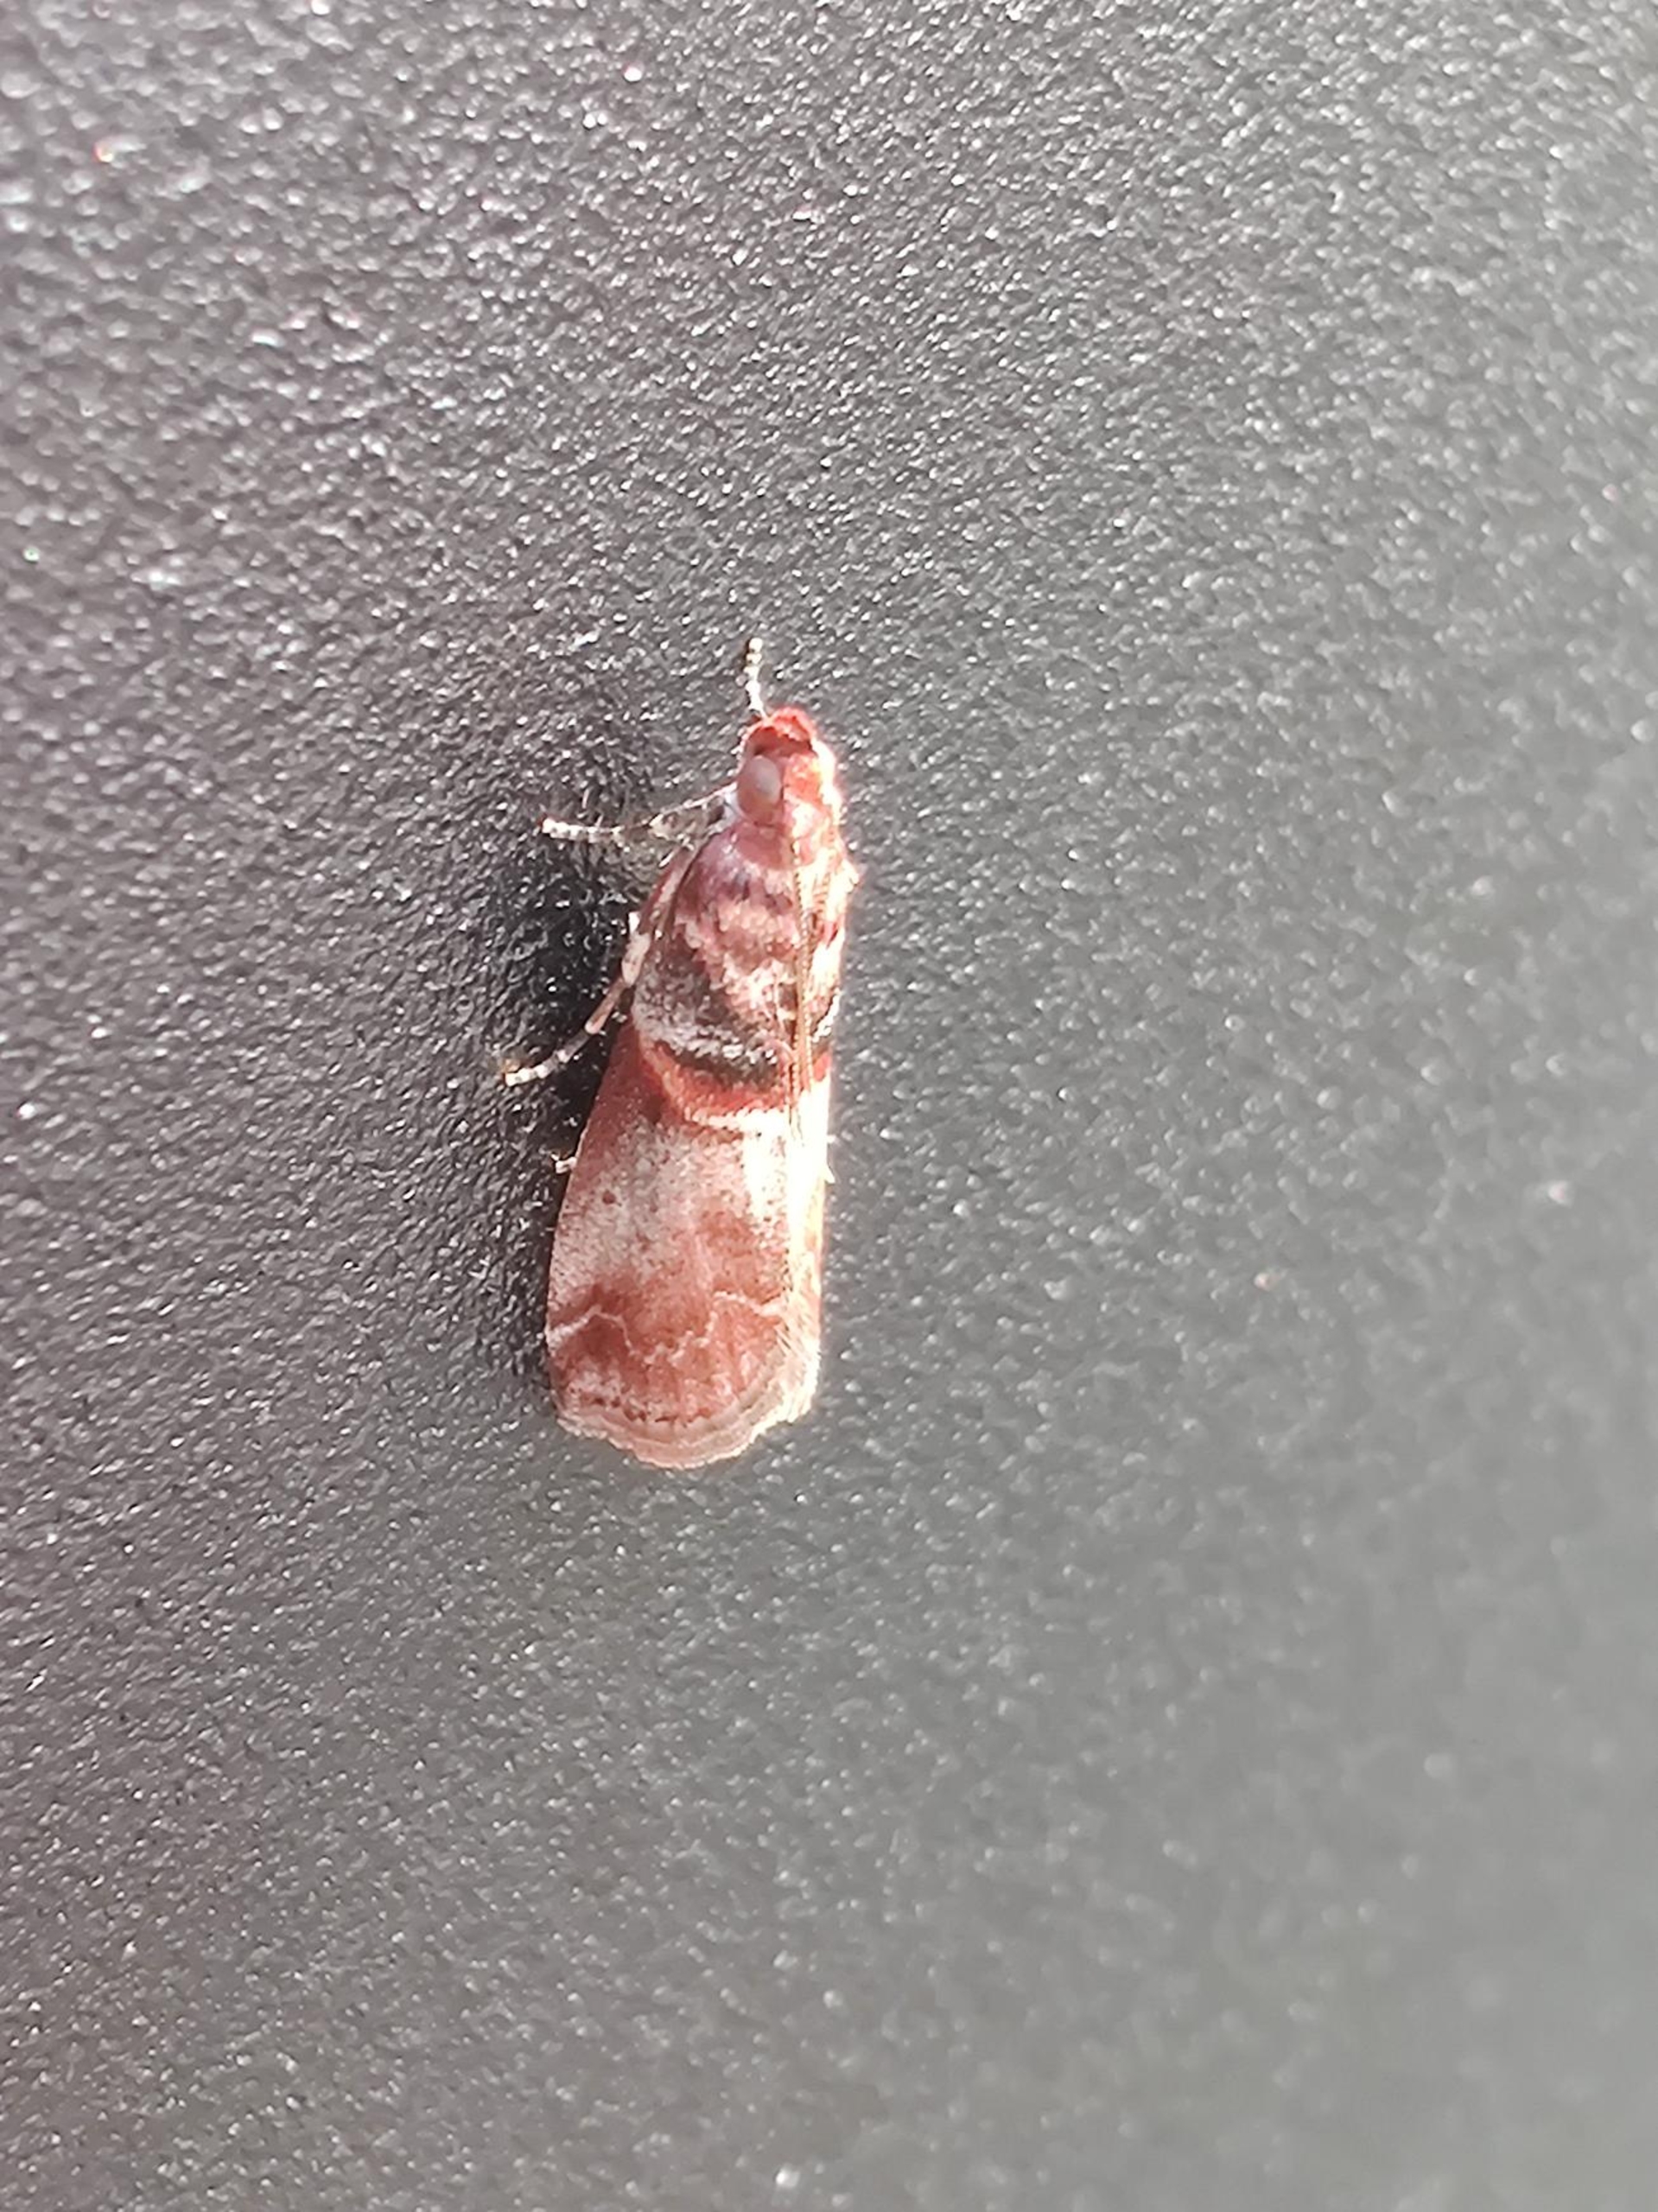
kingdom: Animalia
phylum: Arthropoda
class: Insecta
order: Lepidoptera
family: Pyralidae
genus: Acrobasis
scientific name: Acrobasis advenella
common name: Rønnehalvmøl
